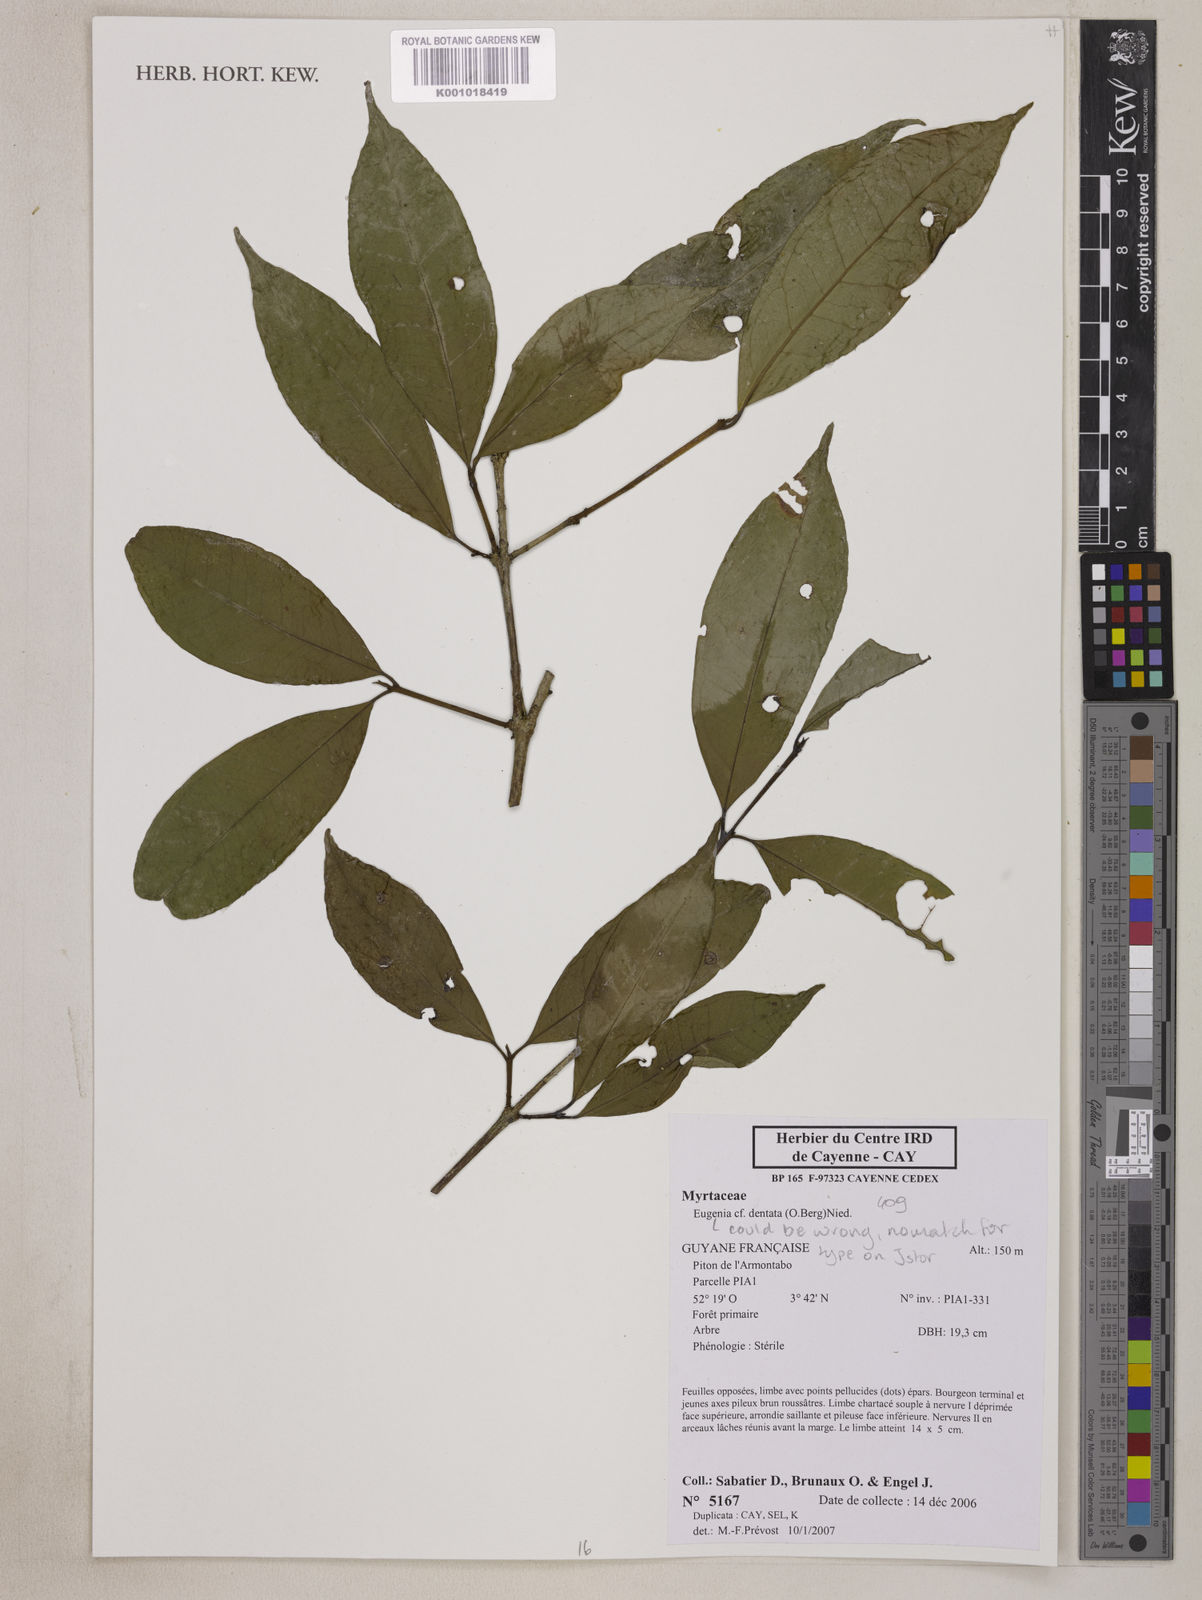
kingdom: Plantae
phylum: Tracheophyta
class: Magnoliopsida
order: Myrtales
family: Myrtaceae
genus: Eugenia
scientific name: Eugenia dentata
